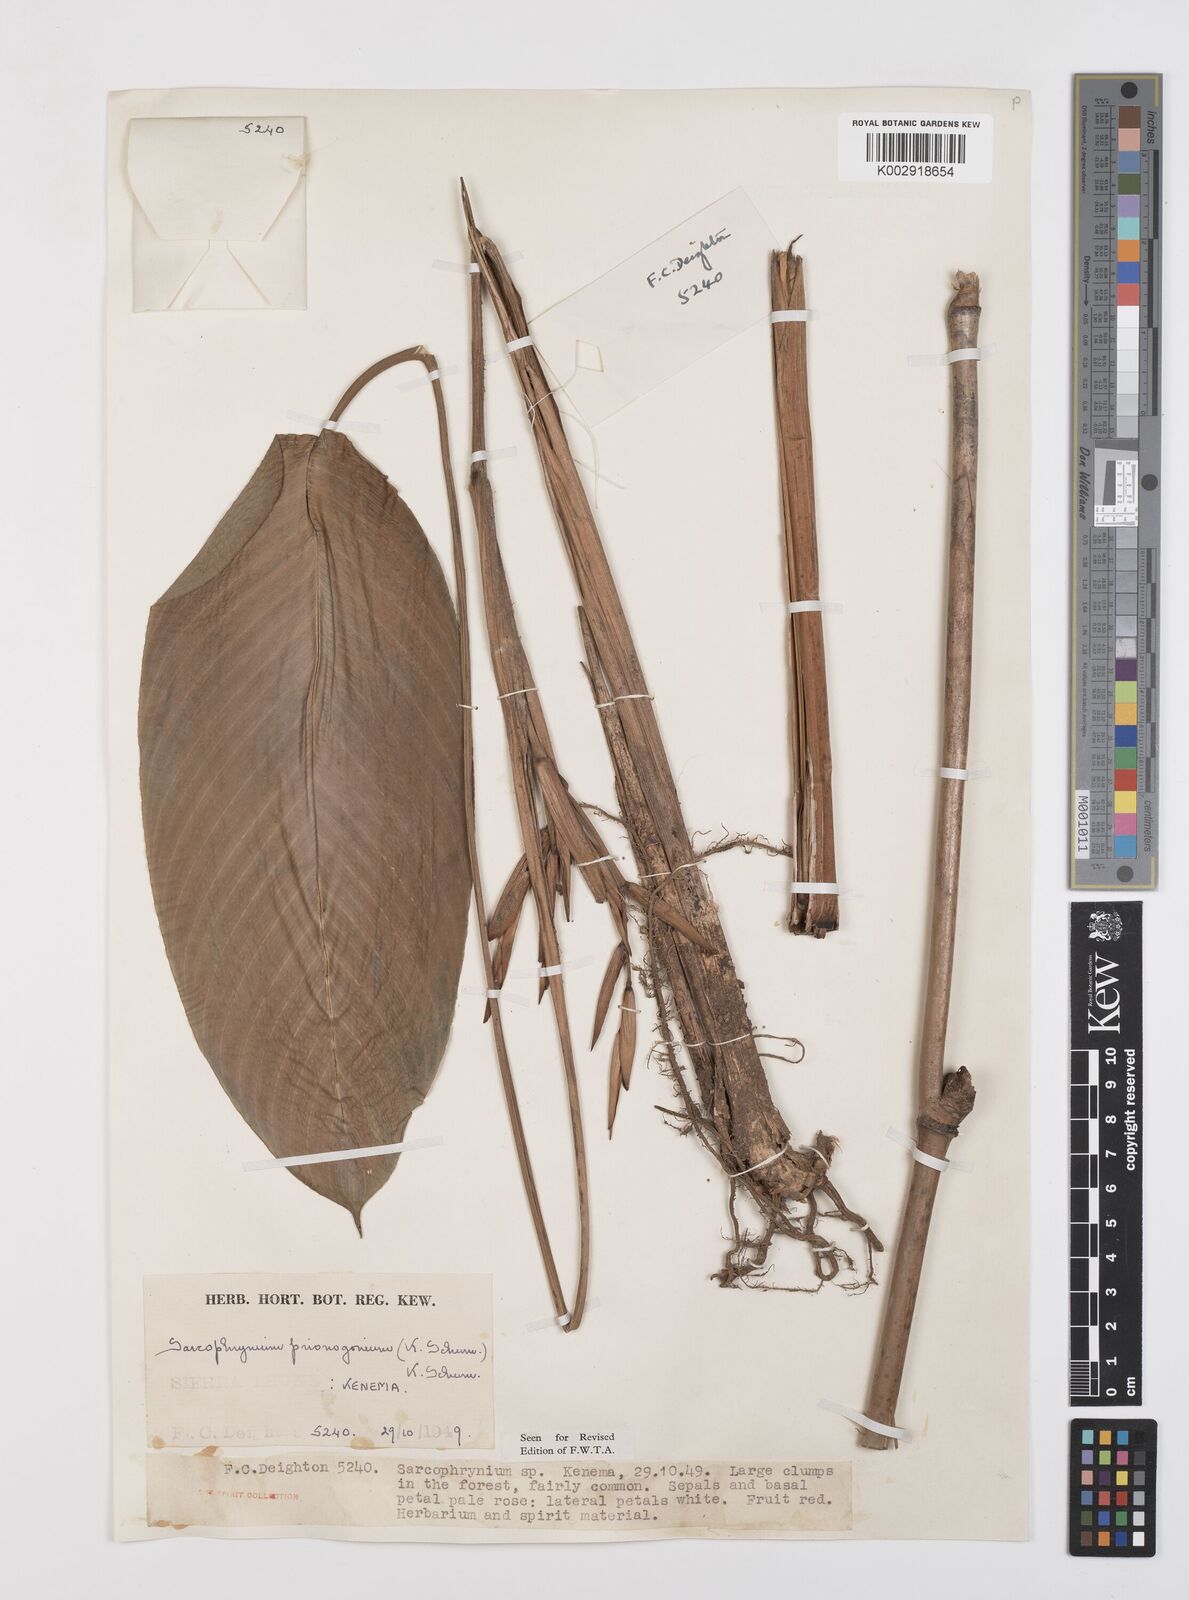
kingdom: Plantae
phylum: Tracheophyta
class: Liliopsida
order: Zingiberales
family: Marantaceae
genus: Sarcophrynium
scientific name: Sarcophrynium prionogonium
